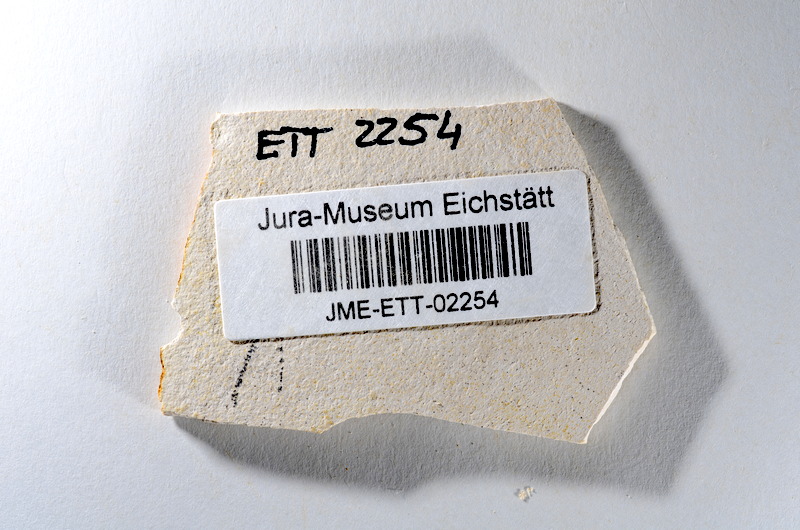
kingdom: Animalia
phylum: Chordata
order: Salmoniformes
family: Orthogonikleithridae
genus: Orthogonikleithrus
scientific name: Orthogonikleithrus hoelli
